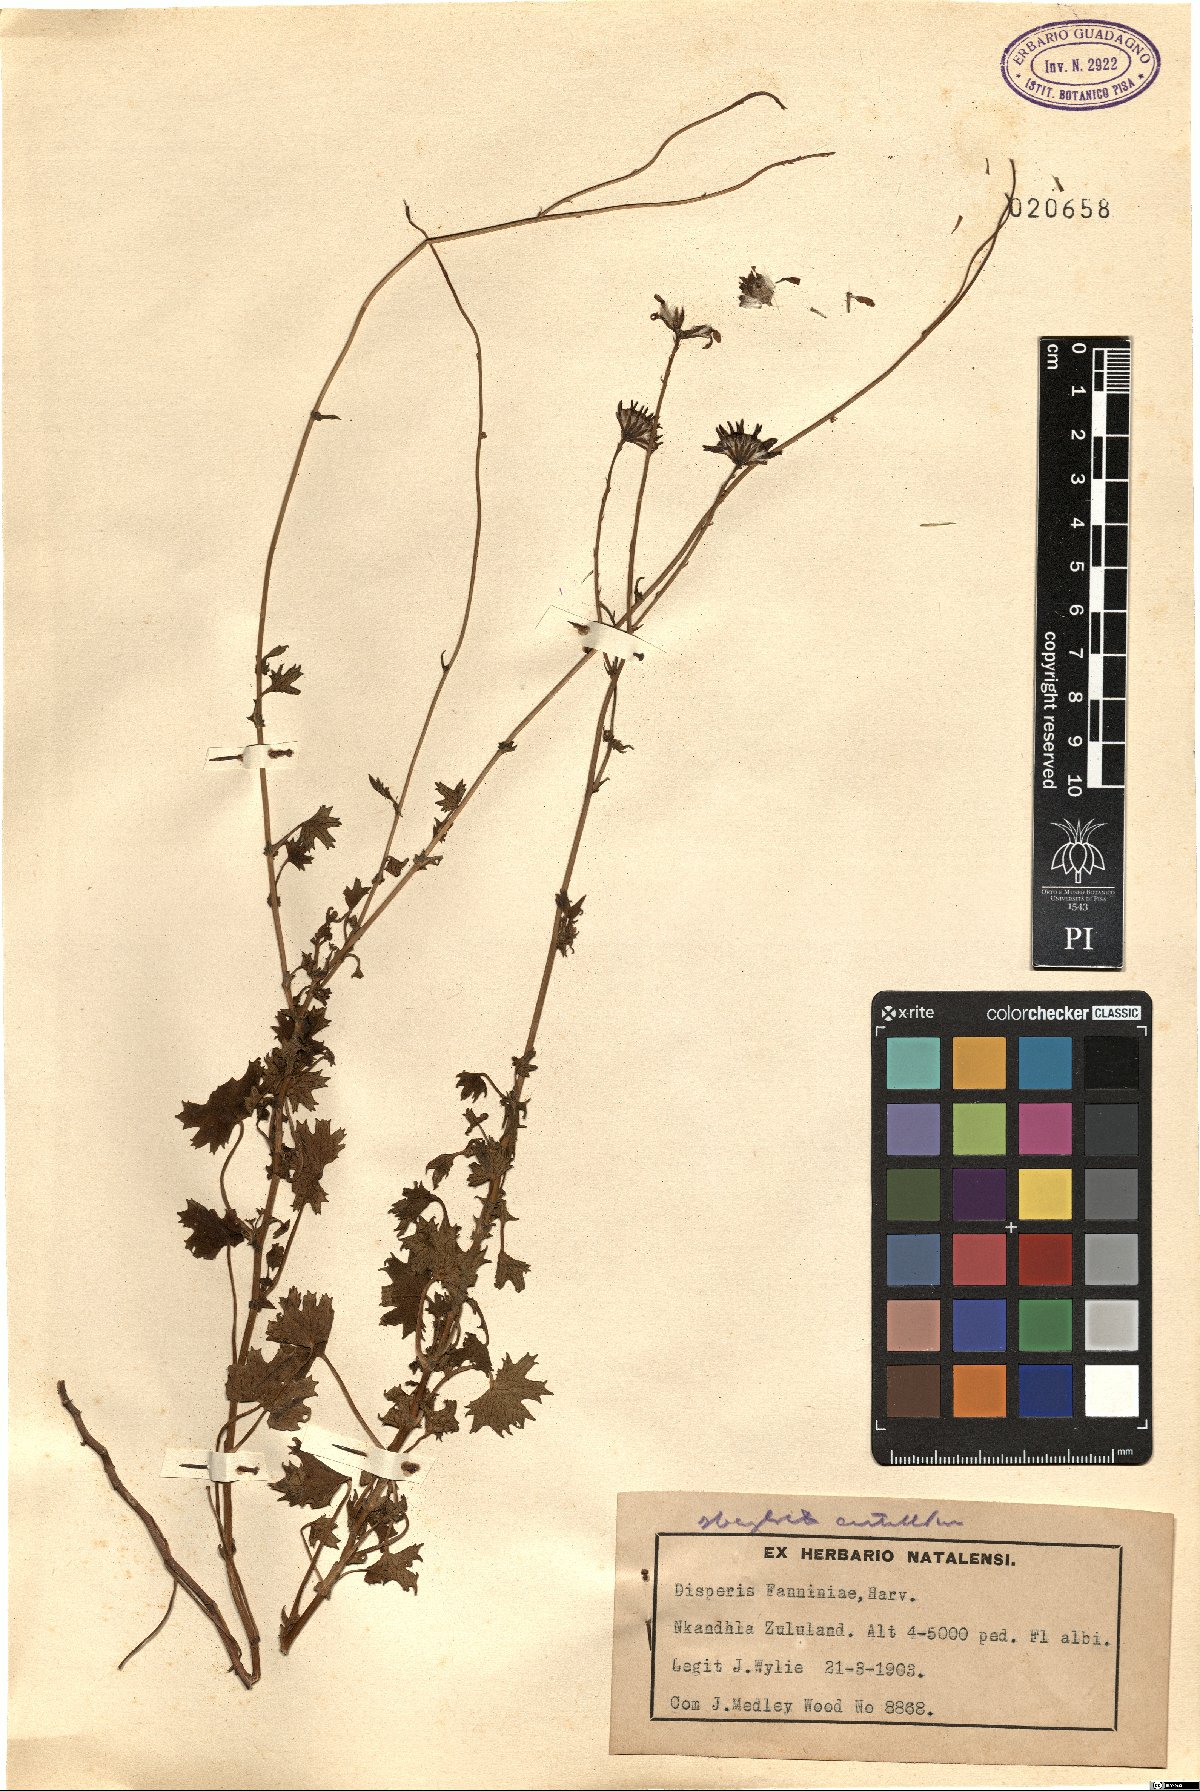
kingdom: Plantae
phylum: Tracheophyta
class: Liliopsida
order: Asparagales
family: Orchidaceae
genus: Disperis
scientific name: Disperis fanniniae
